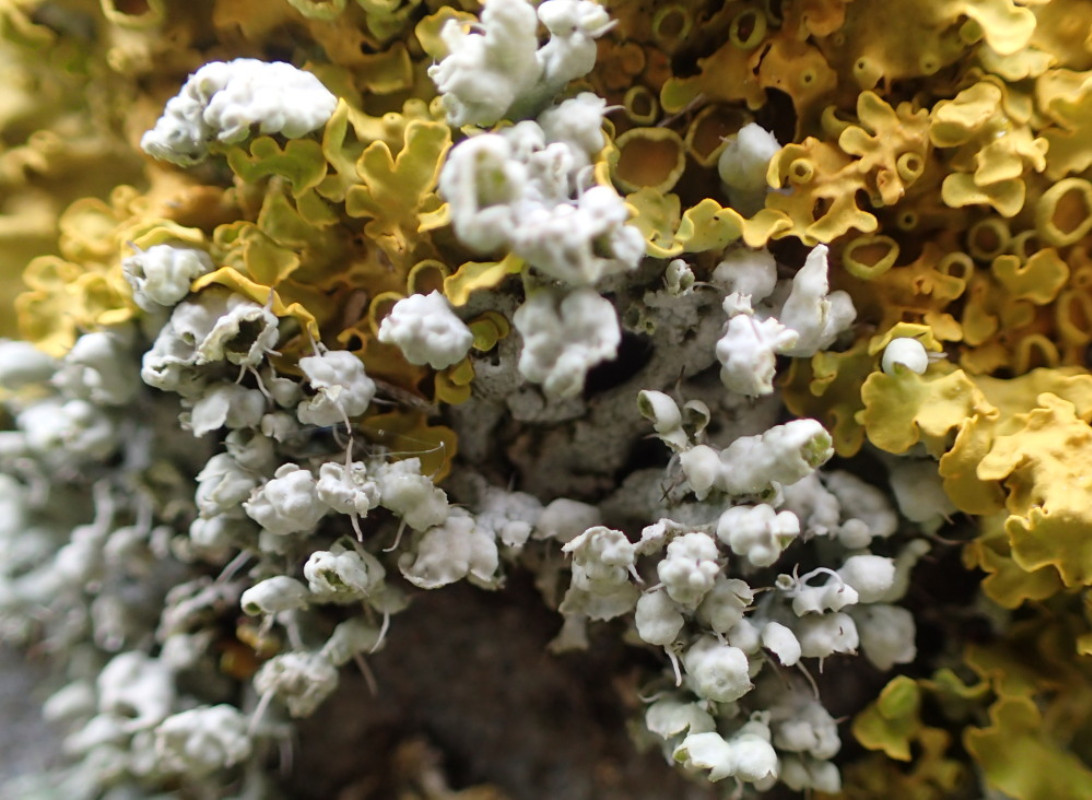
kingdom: Fungi
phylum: Ascomycota
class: Lecanoromycetes
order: Caliciales
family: Physciaceae
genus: Physcia
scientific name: Physcia adscendens
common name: hætte-rosetlav
